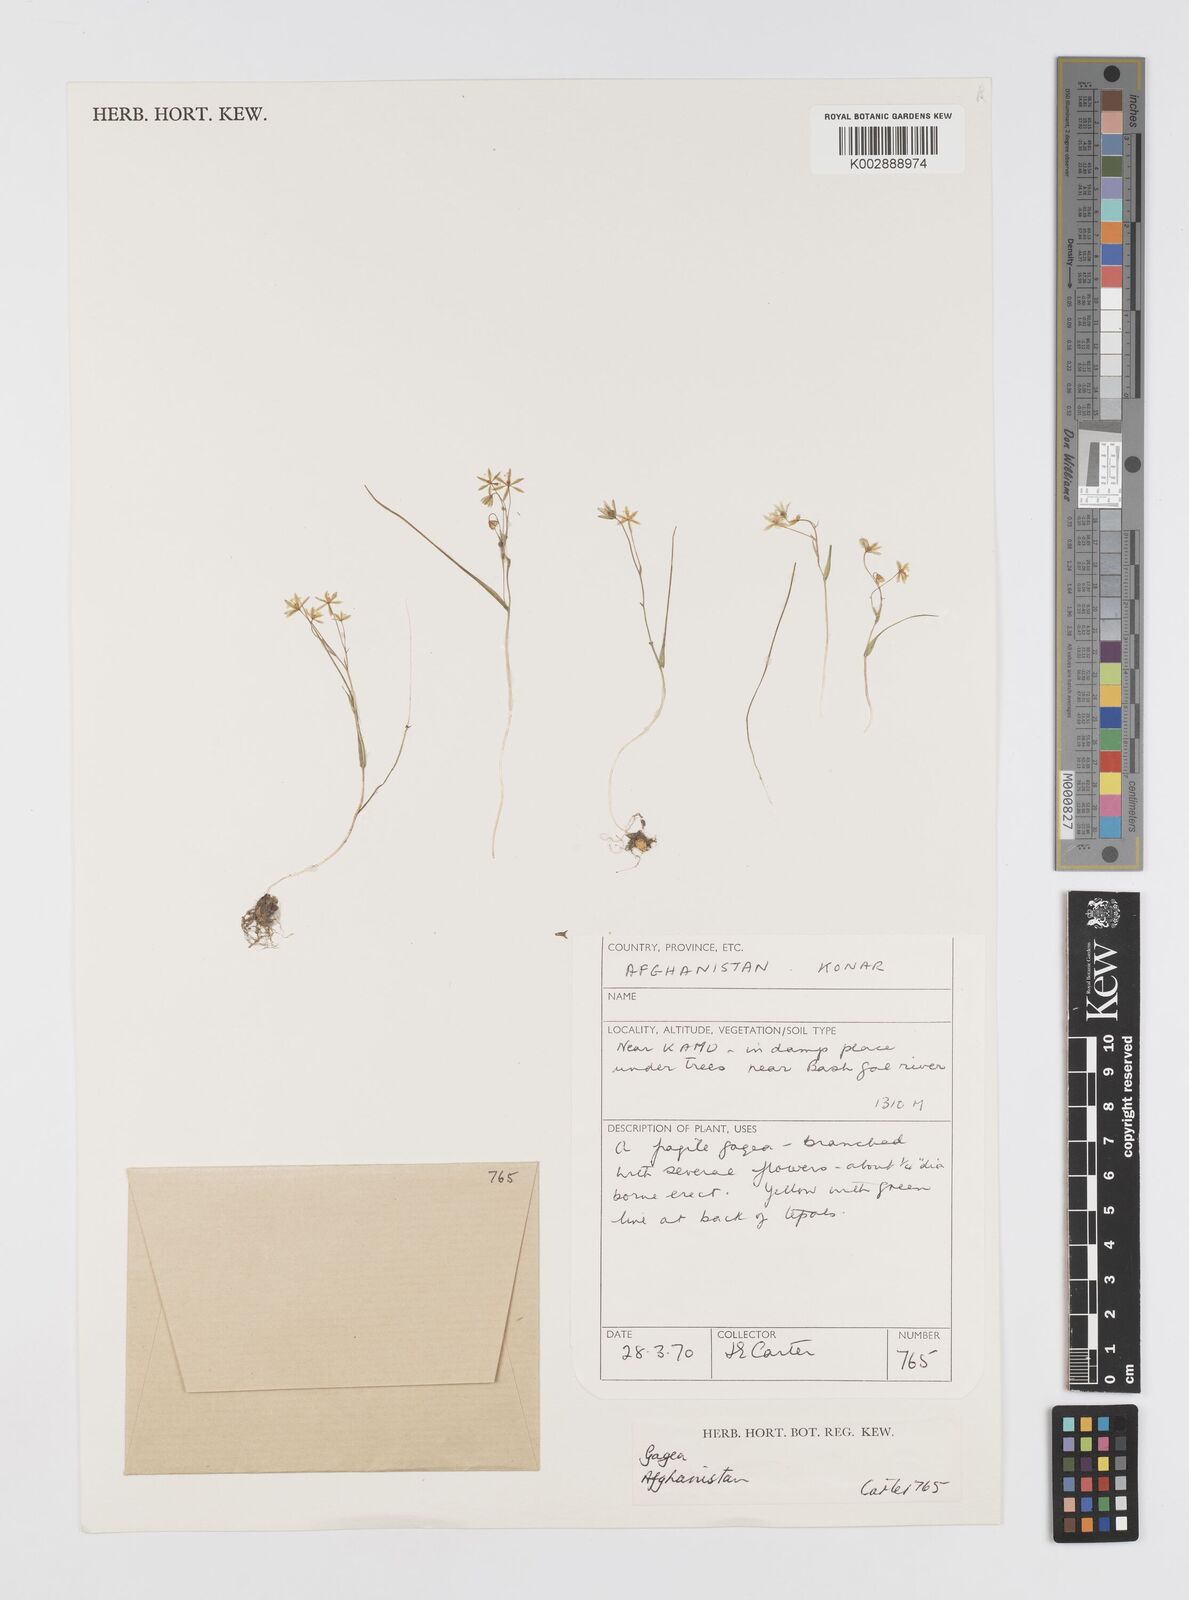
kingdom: Plantae
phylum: Tracheophyta
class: Liliopsida
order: Liliales
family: Liliaceae
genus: Gagea
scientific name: Gagea
